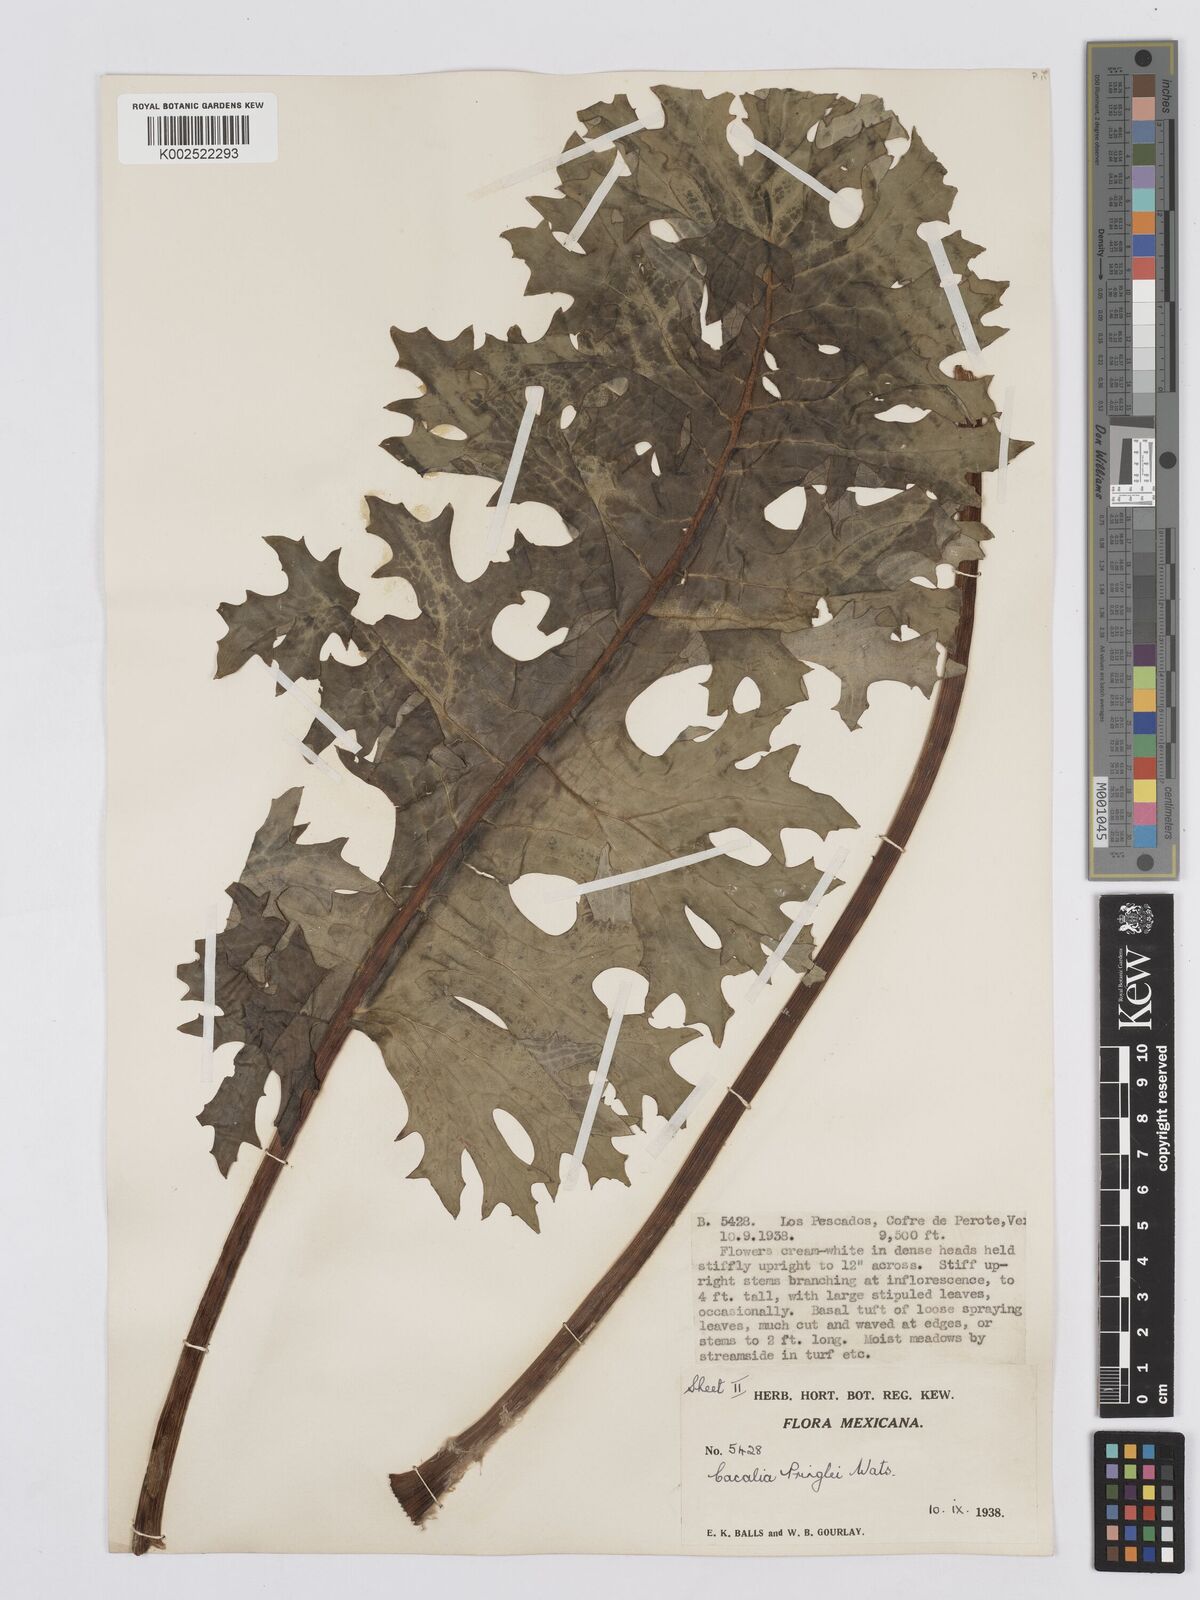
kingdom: Plantae
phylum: Tracheophyta
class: Magnoliopsida
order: Asterales
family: Asteraceae
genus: Psacalium
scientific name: Psacalium pringlei
